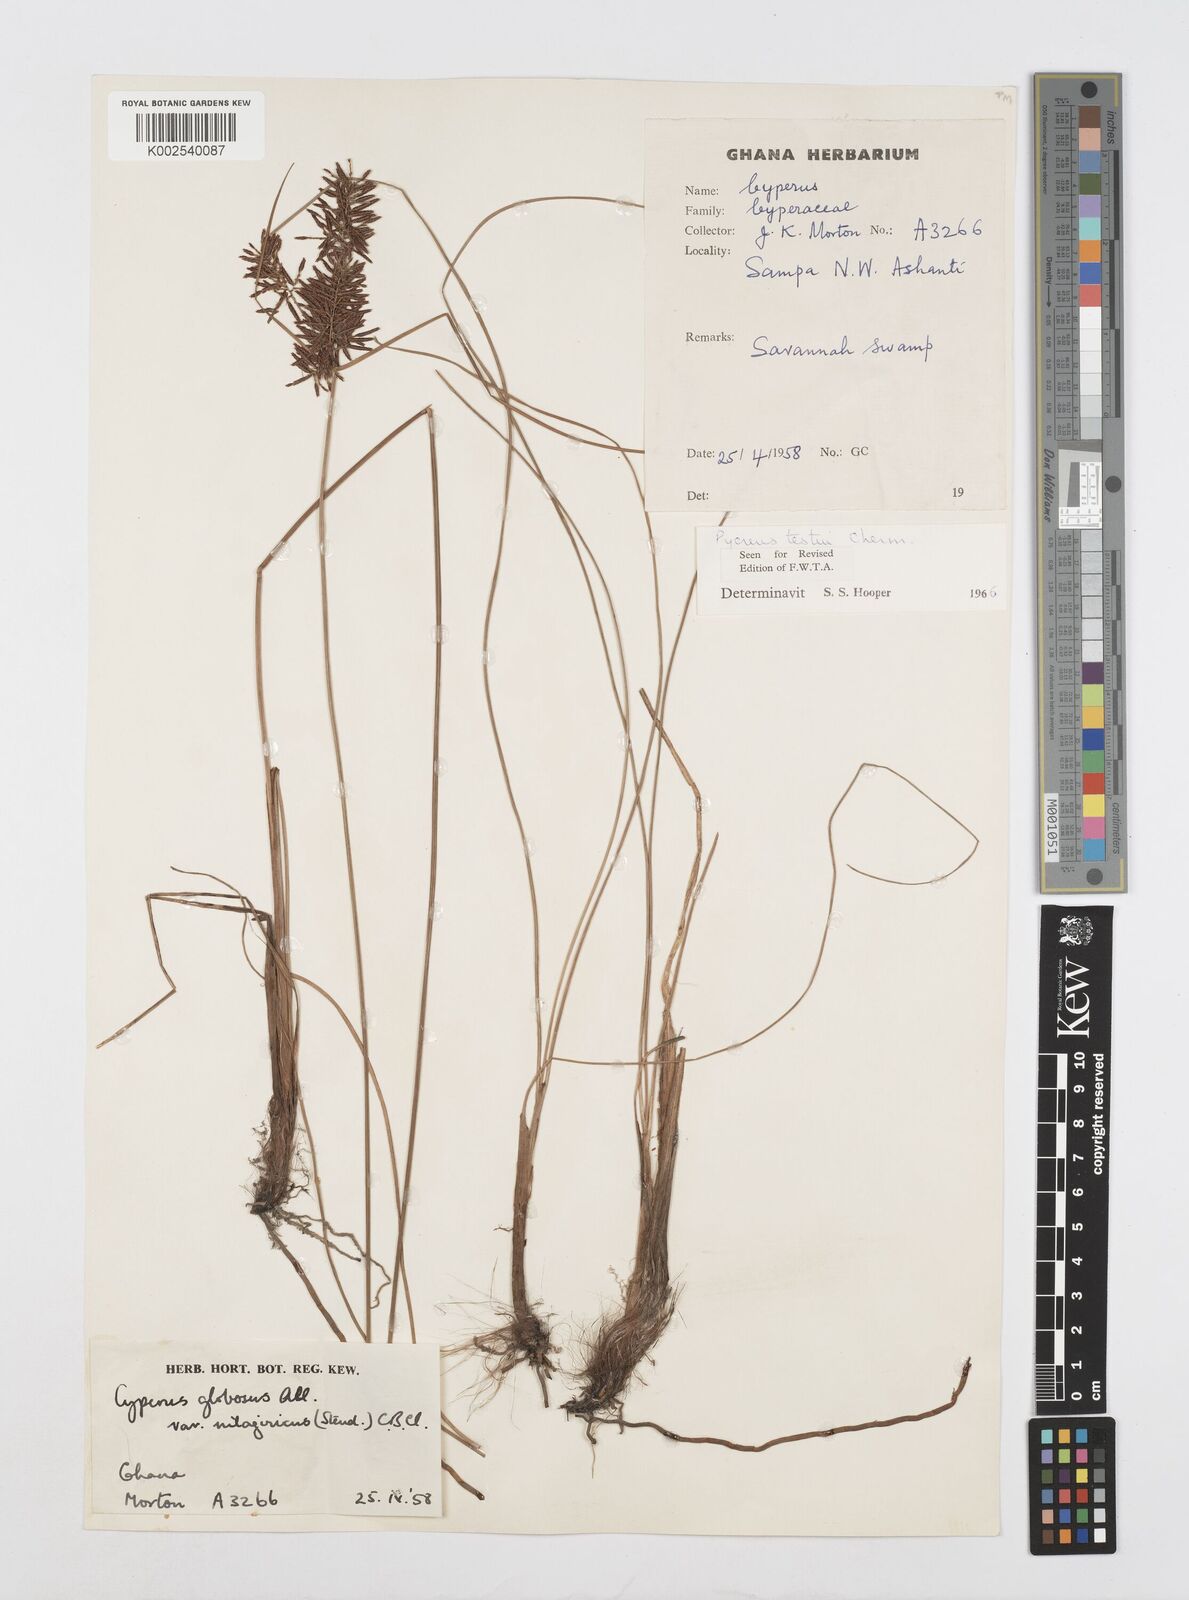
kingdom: Plantae
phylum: Tracheophyta
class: Liliopsida
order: Poales
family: Cyperaceae
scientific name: Cyperaceae
